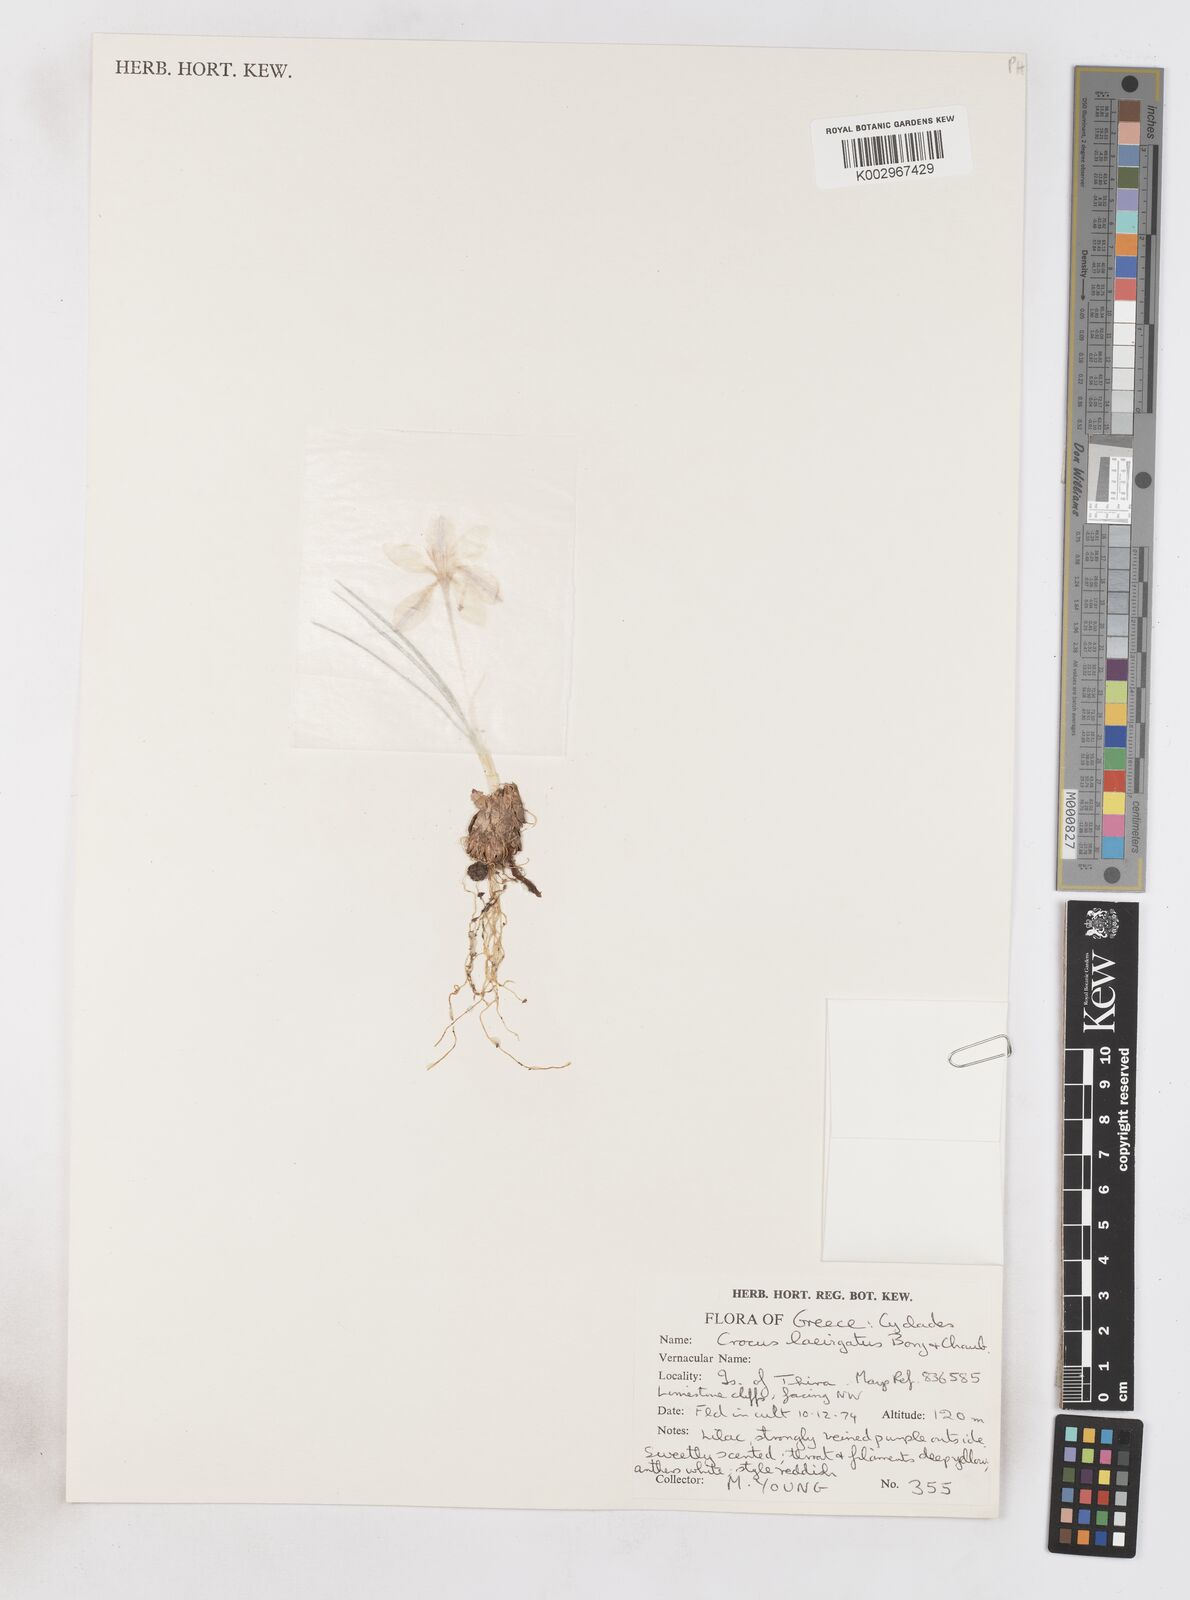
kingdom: Plantae
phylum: Tracheophyta
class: Liliopsida
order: Asparagales
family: Iridaceae
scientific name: Iridaceae
